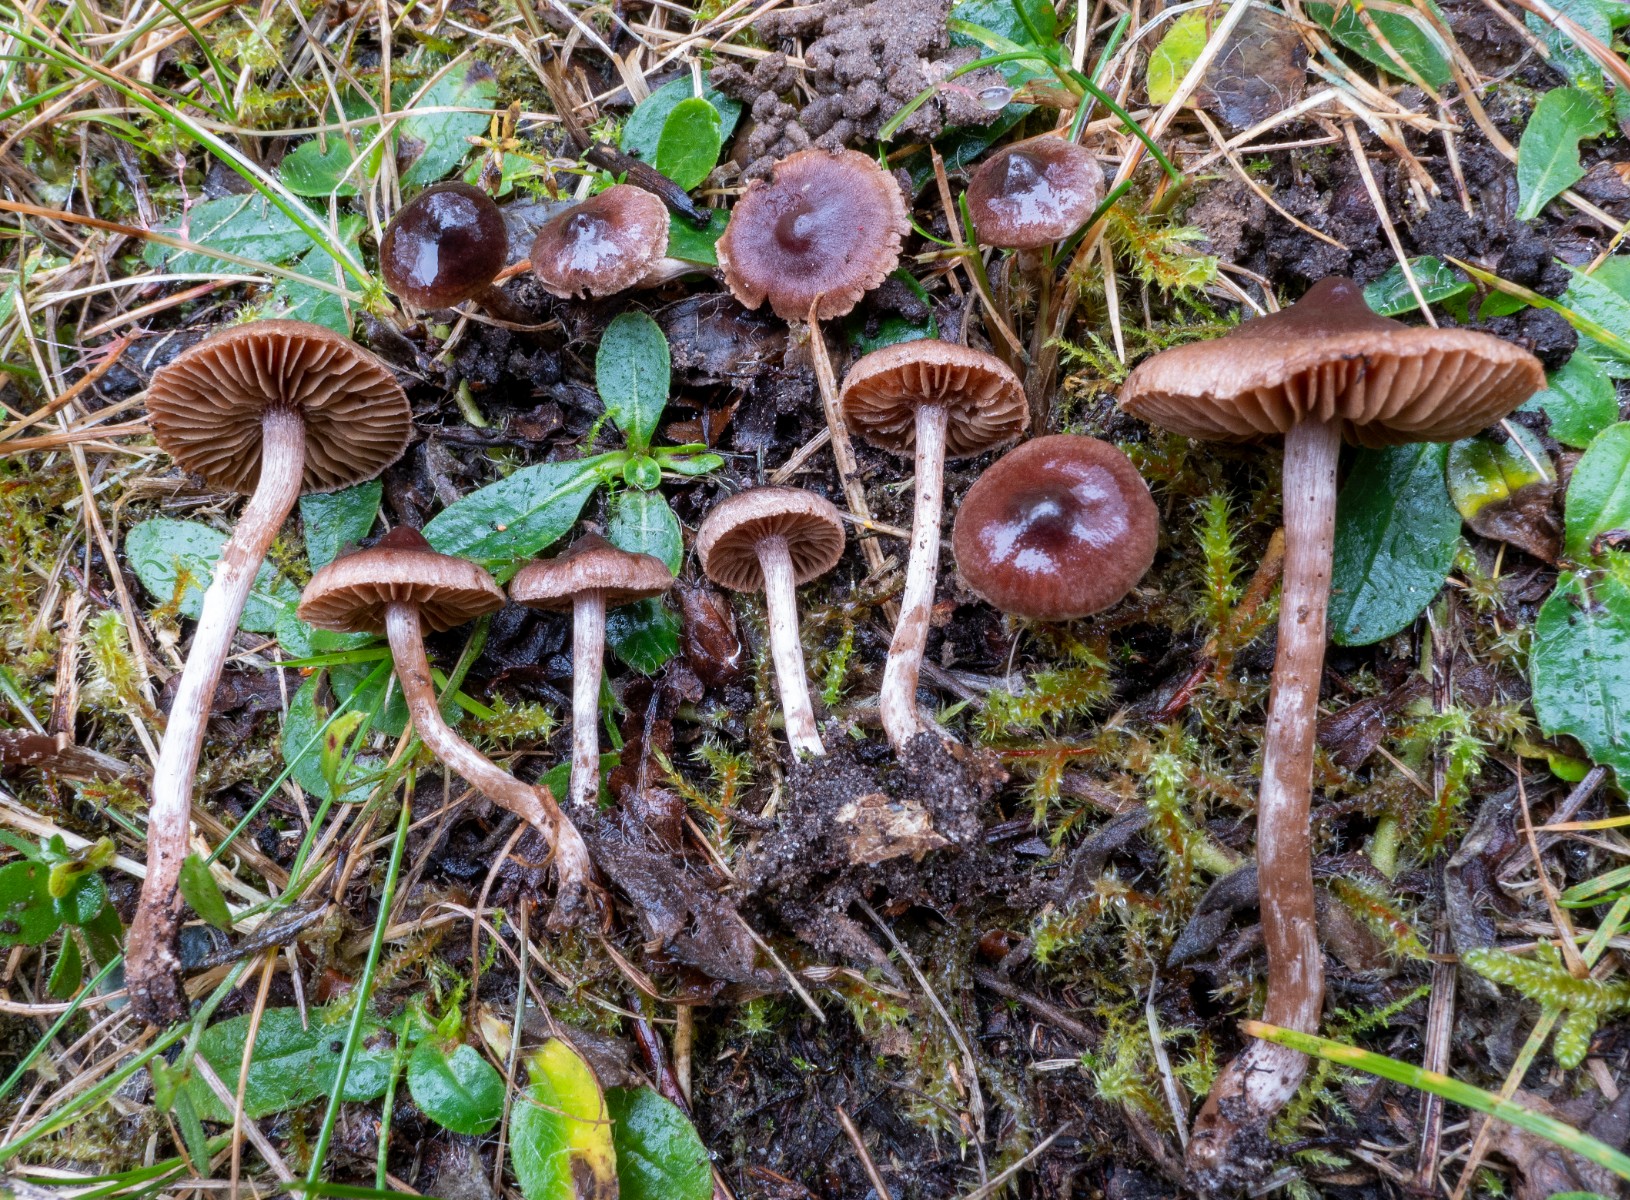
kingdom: Fungi
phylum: Basidiomycota
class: Agaricomycetes
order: Agaricales
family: Cortinariaceae
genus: Cortinarius
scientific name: Cortinarius decipiens
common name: blåsort slørhat
